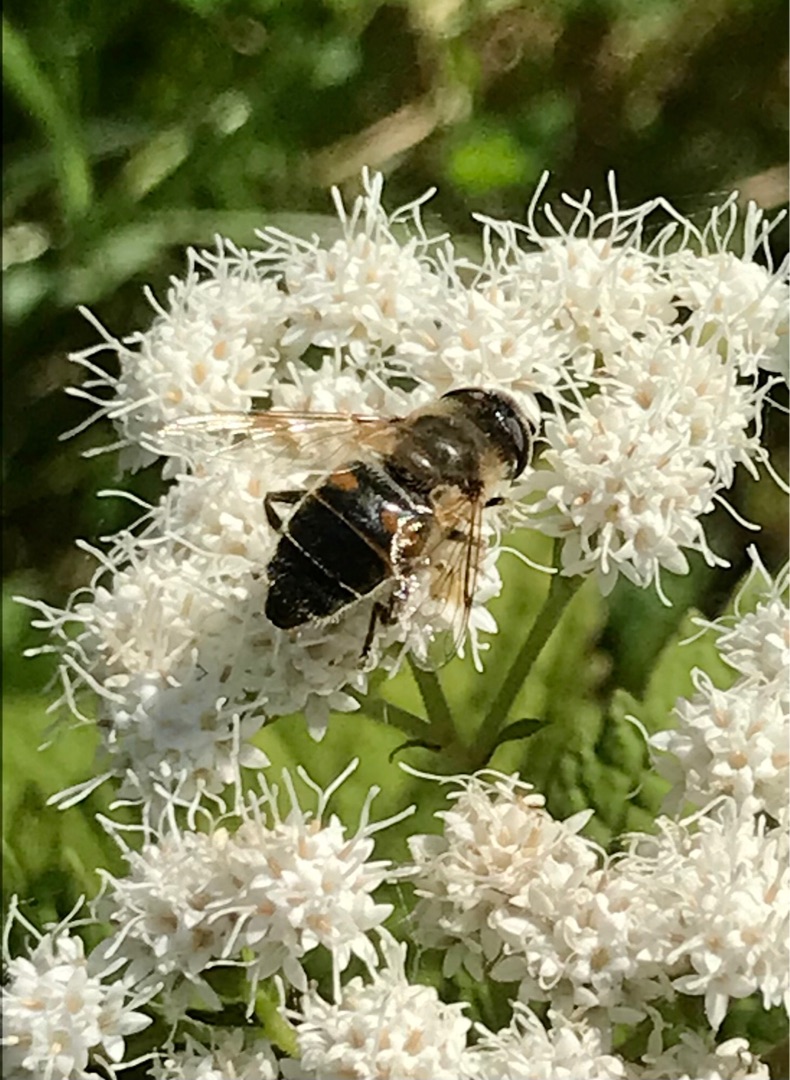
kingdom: Animalia
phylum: Arthropoda
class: Insecta
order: Diptera
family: Syrphidae
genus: Eristalis
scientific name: Eristalis tenax
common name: Droneflue
